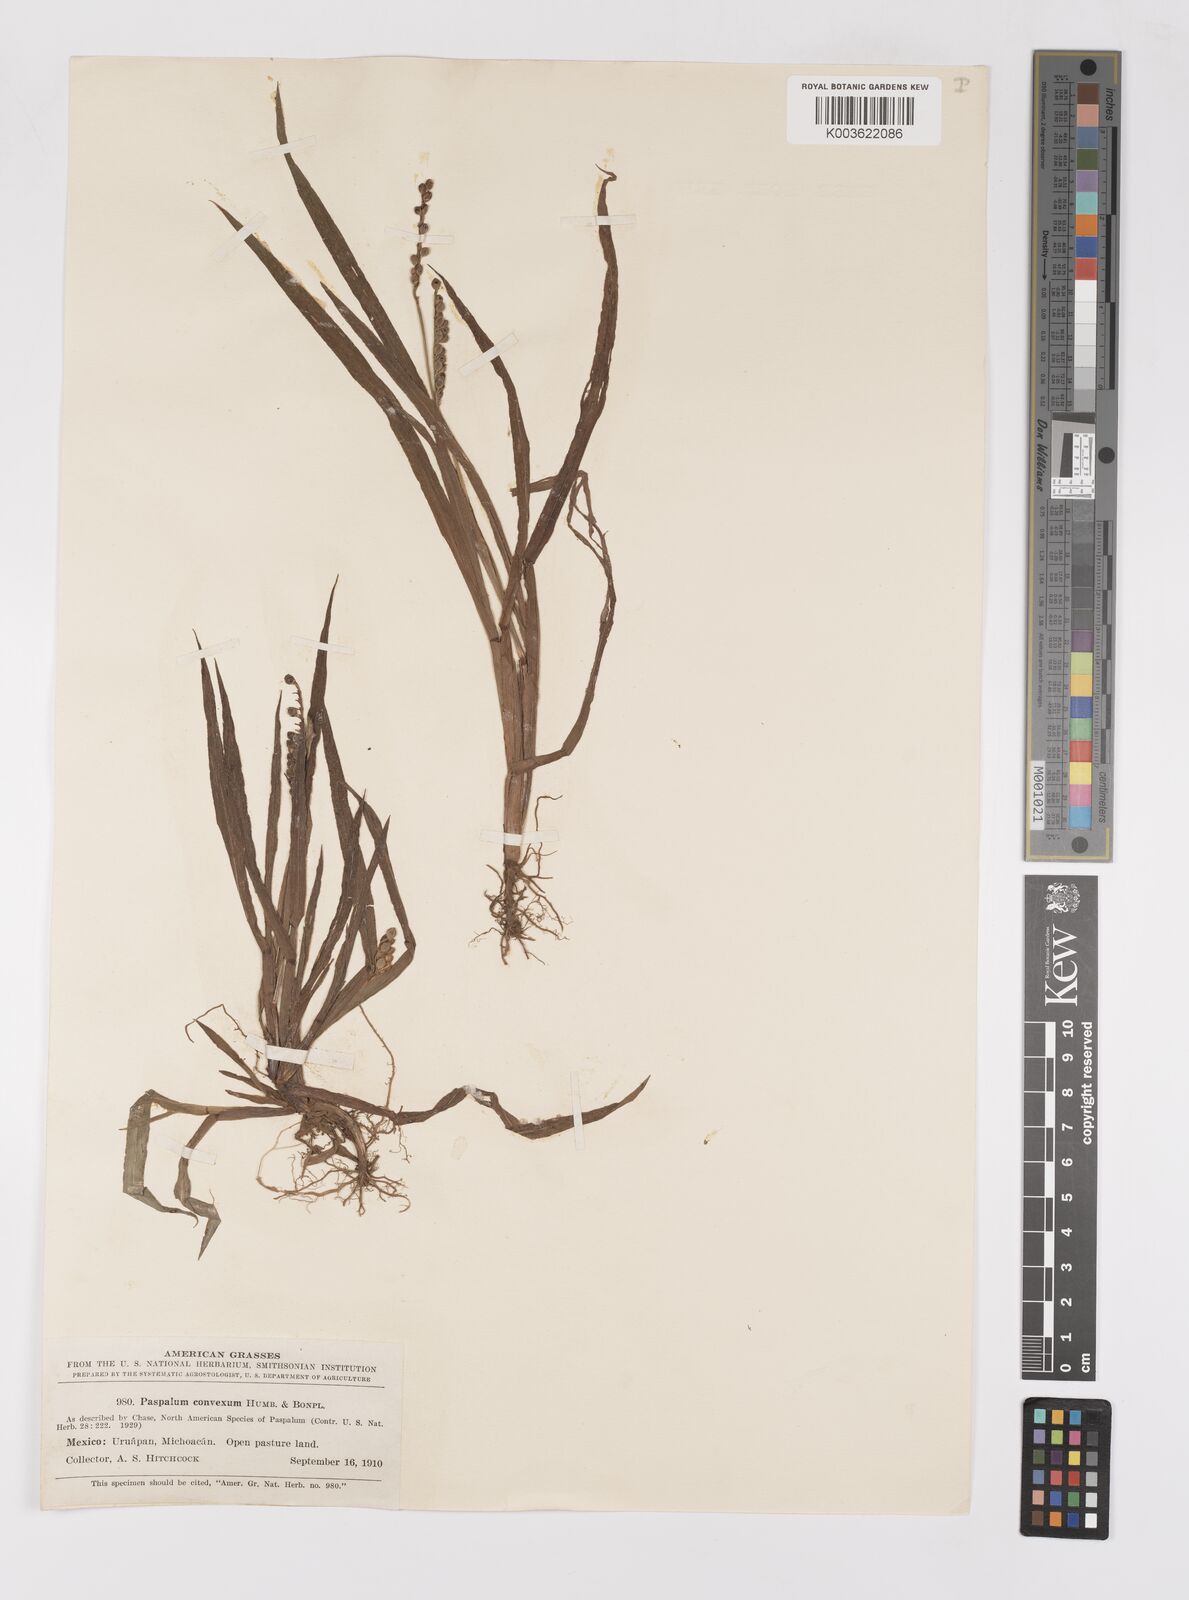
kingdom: Plantae
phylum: Tracheophyta
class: Liliopsida
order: Poales
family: Poaceae
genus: Paspalum
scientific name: Paspalum convexum
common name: Latin american crowngrass
